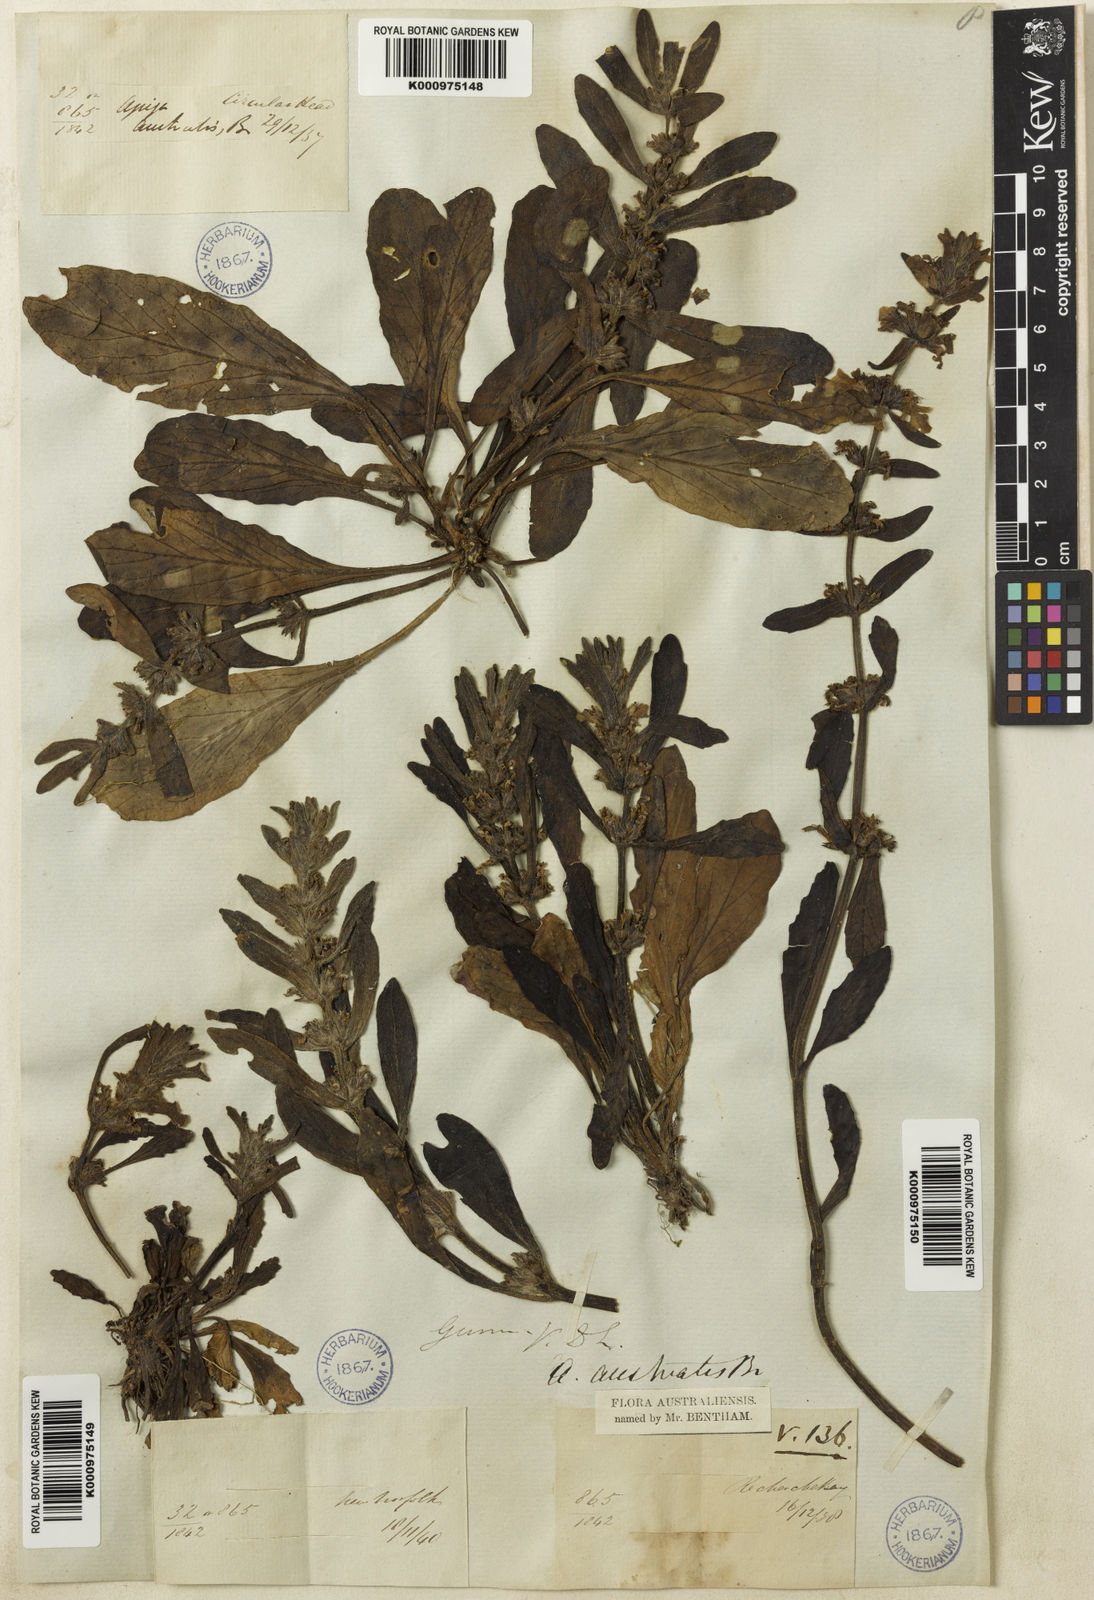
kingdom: Plantae
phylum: Tracheophyta
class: Magnoliopsida
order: Lamiales
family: Lamiaceae
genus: Ajuga
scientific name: Ajuga australis
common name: Australian bugle
